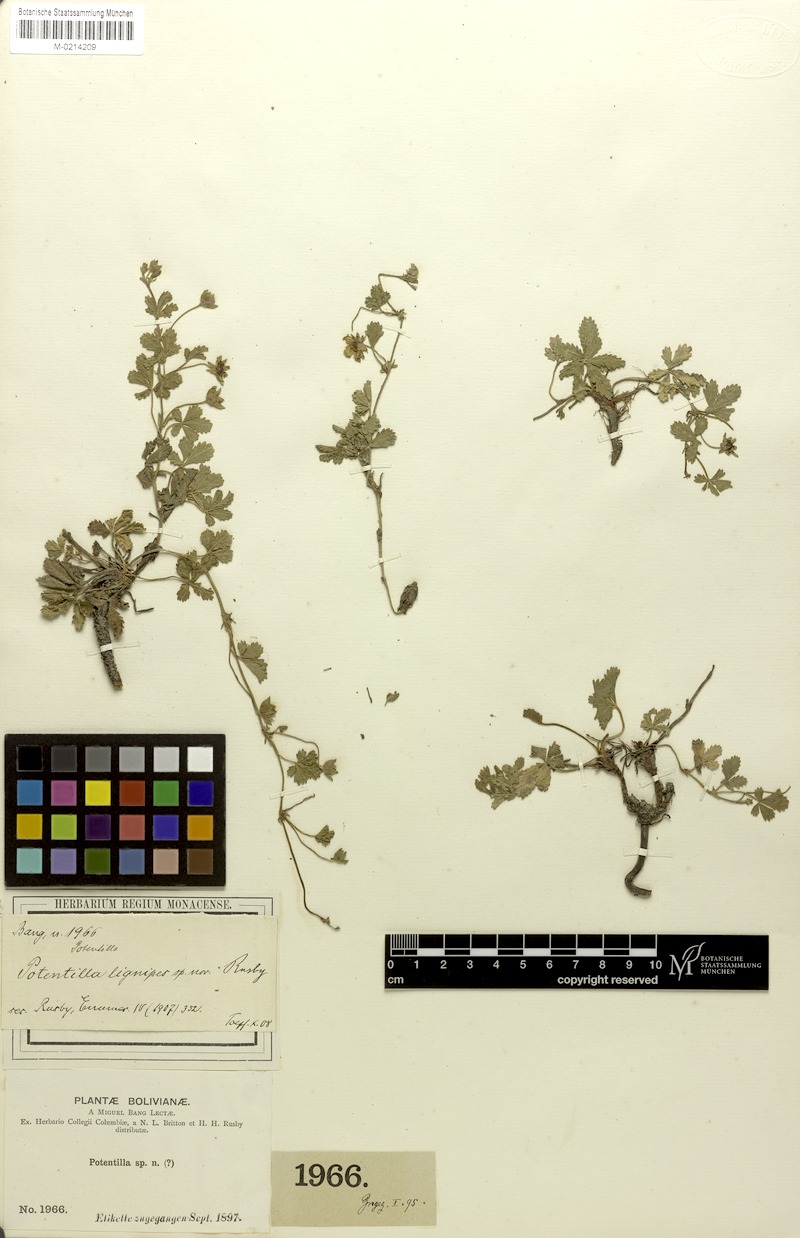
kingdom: Plantae
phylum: Tracheophyta
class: Magnoliopsida
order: Rosales
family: Rosaceae
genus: Potentilla
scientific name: Potentilla lignipes
